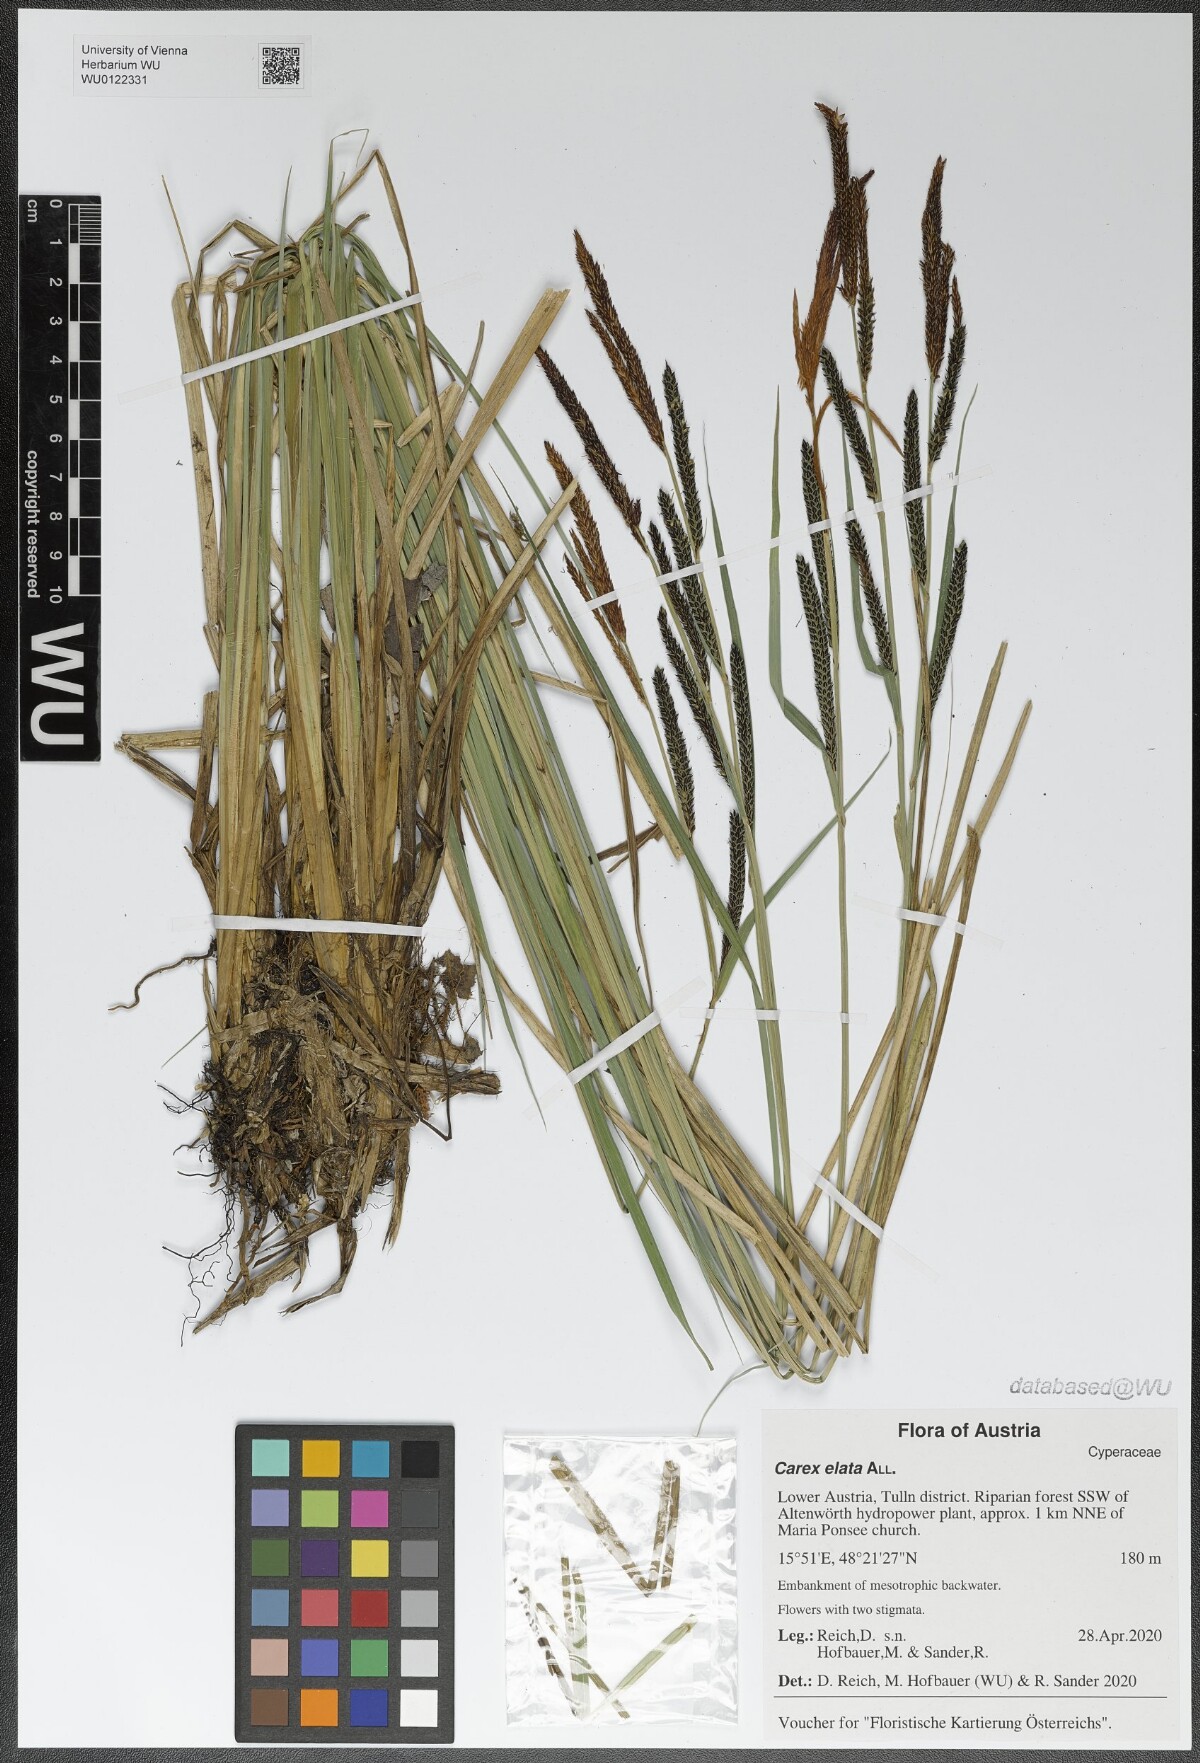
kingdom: Plantae
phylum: Tracheophyta
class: Liliopsida
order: Poales
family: Cyperaceae
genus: Carex
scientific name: Carex elata
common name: Tufted sedge
